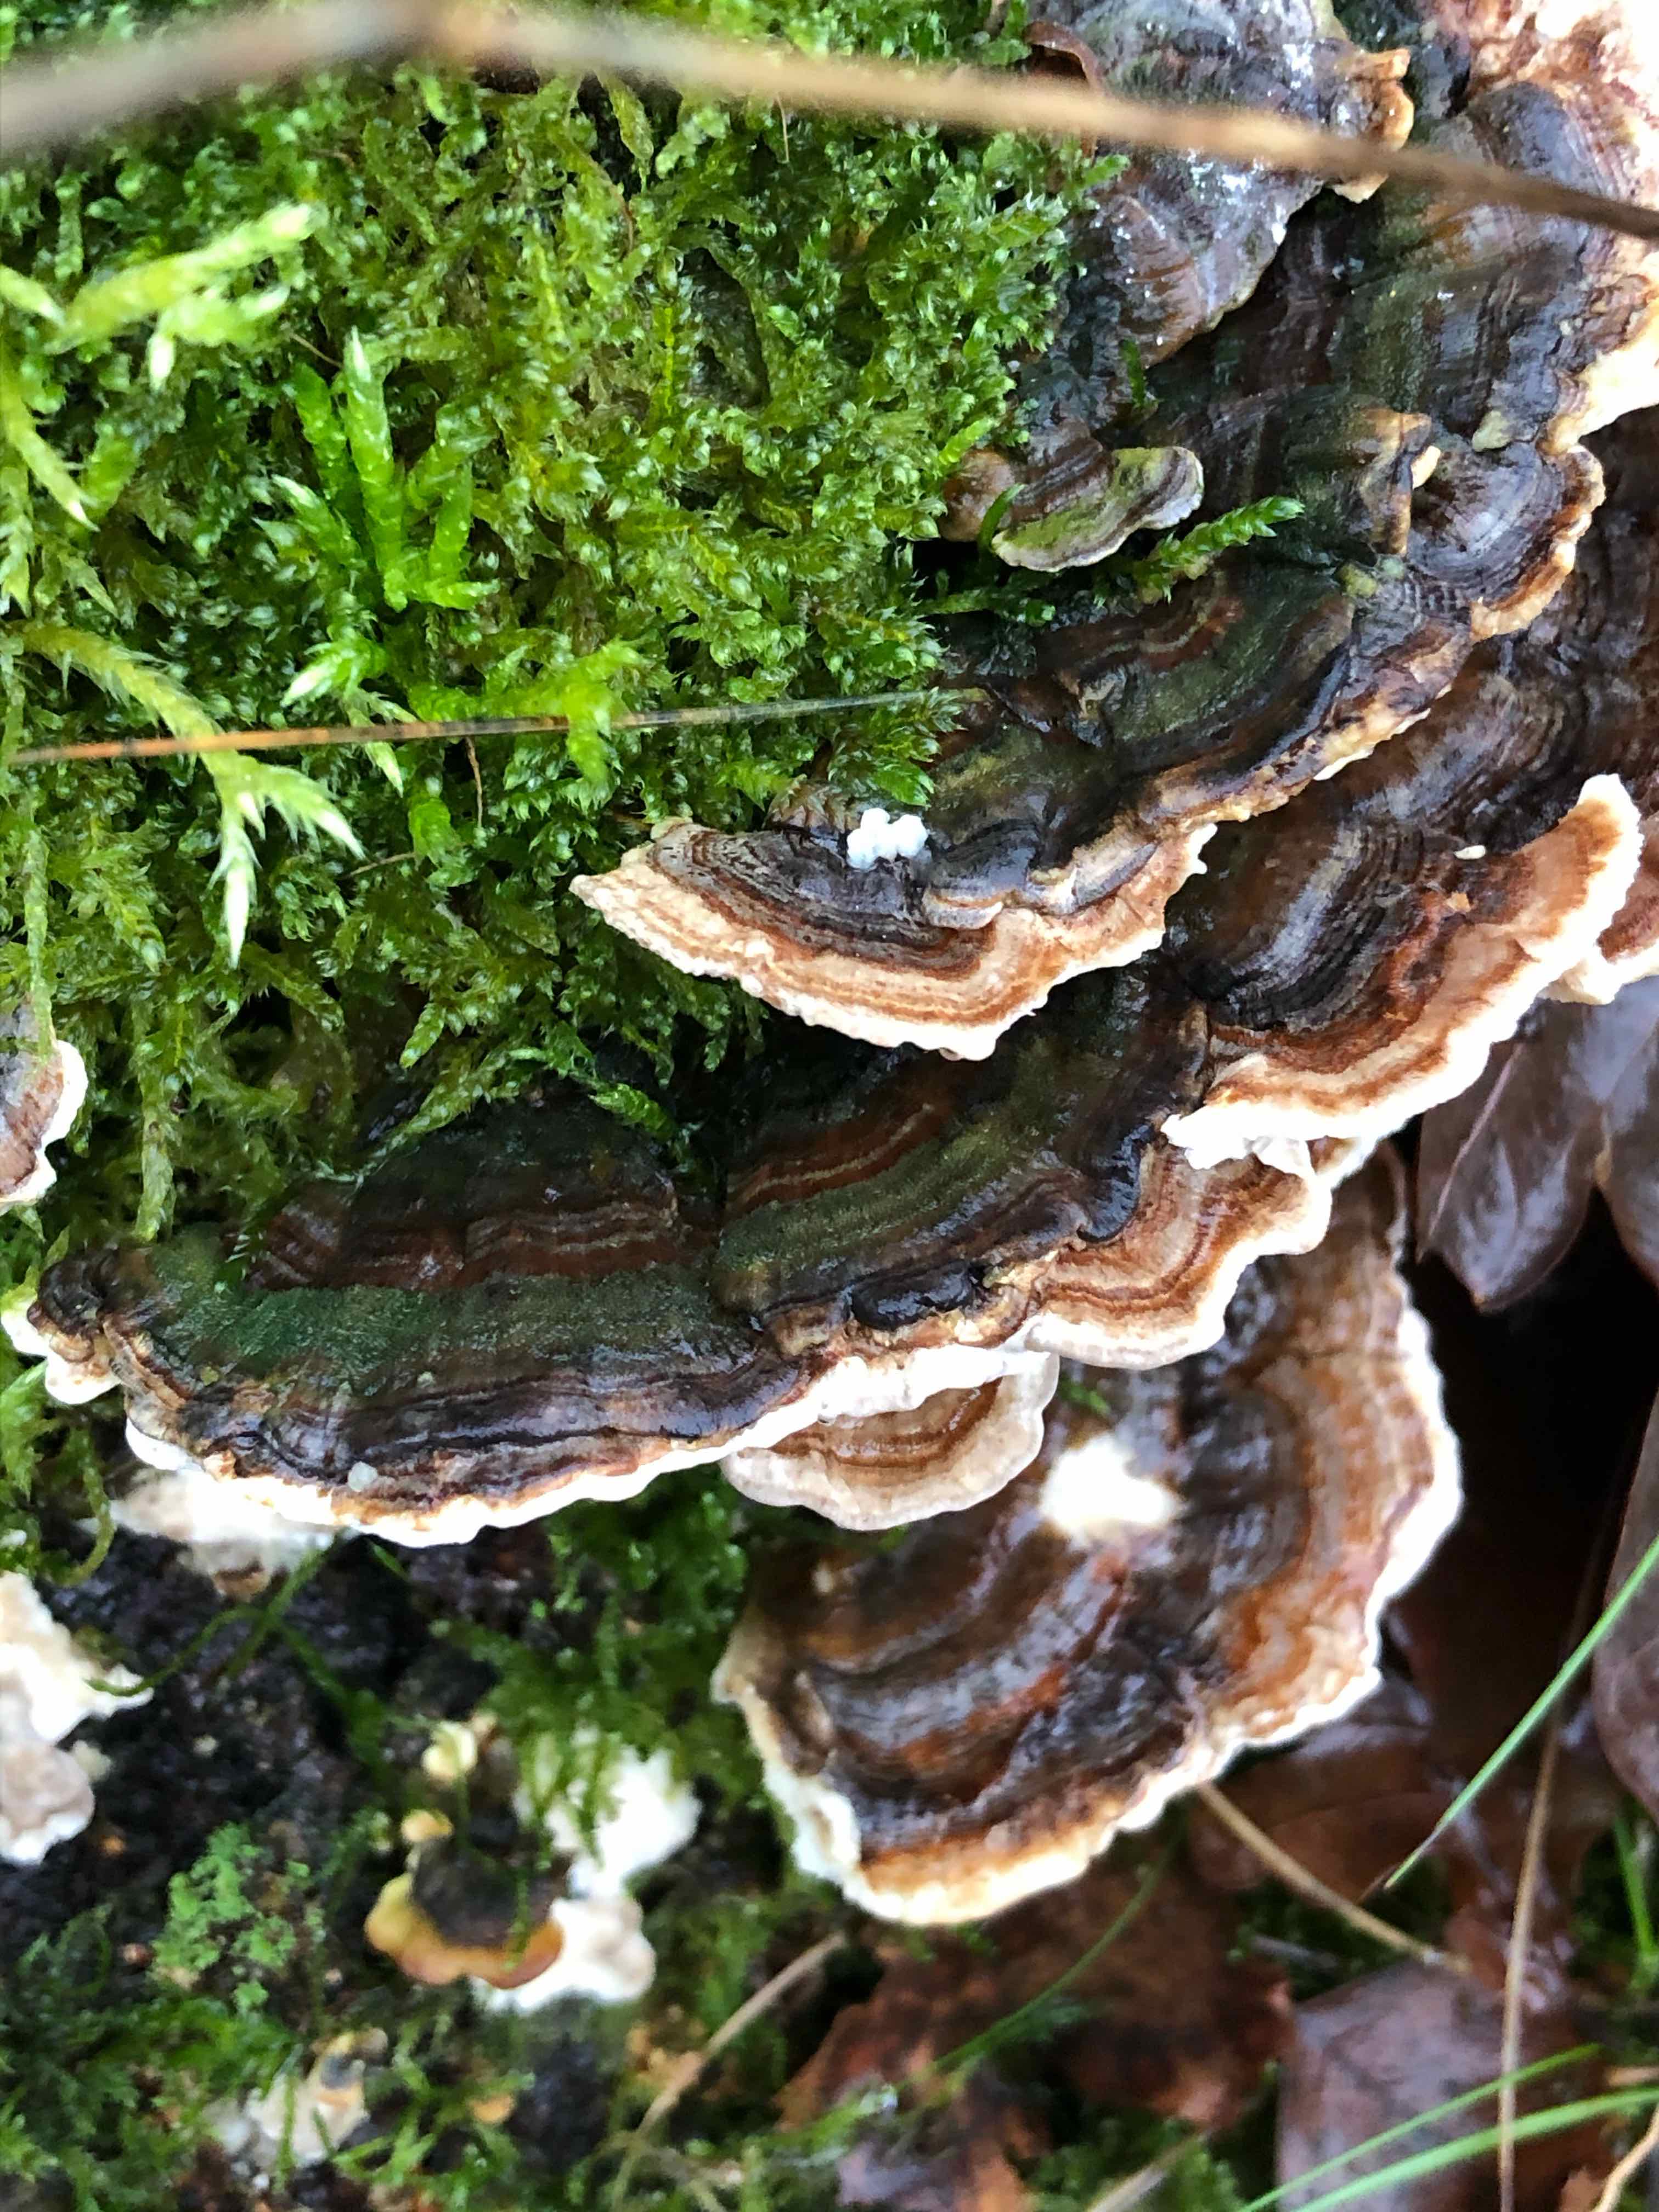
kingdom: Fungi
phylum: Basidiomycota
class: Agaricomycetes
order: Polyporales
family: Polyporaceae
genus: Trametes
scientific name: Trametes versicolor
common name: broget læderporesvamp
